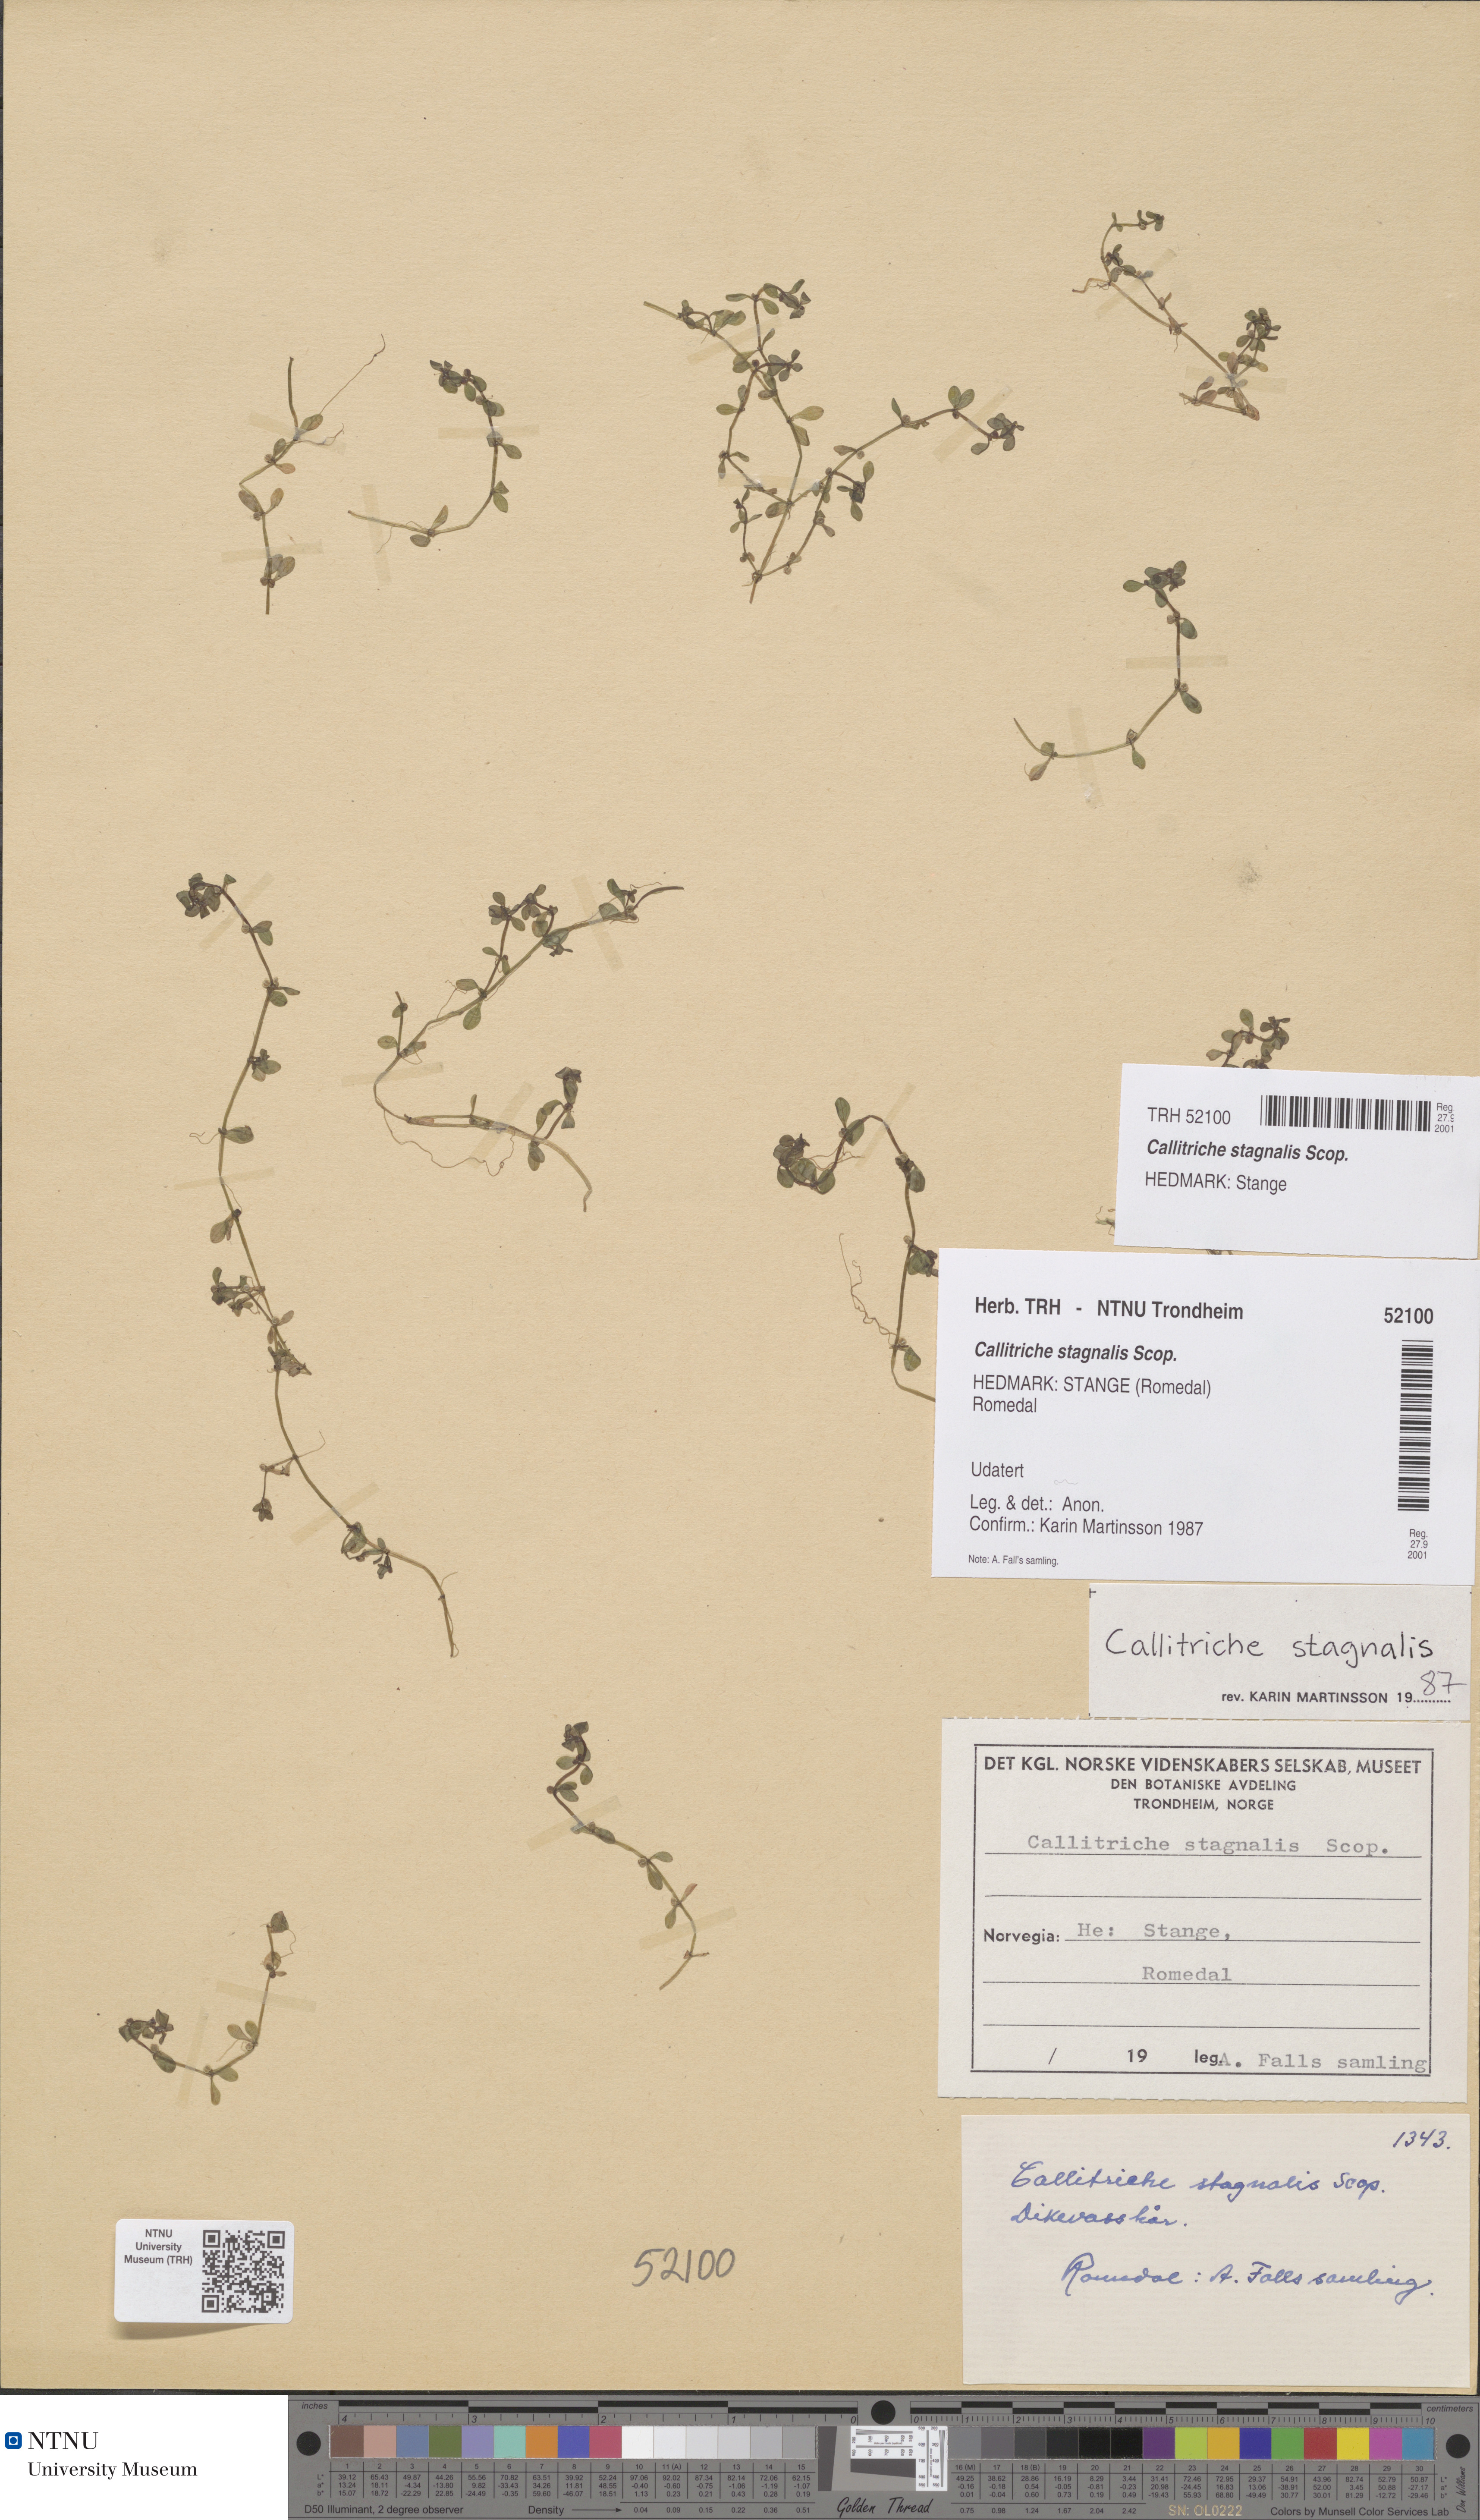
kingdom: Plantae
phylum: Tracheophyta
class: Magnoliopsida
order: Lamiales
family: Plantaginaceae
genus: Callitriche
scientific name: Callitriche stagnalis
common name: Common water-starwort
